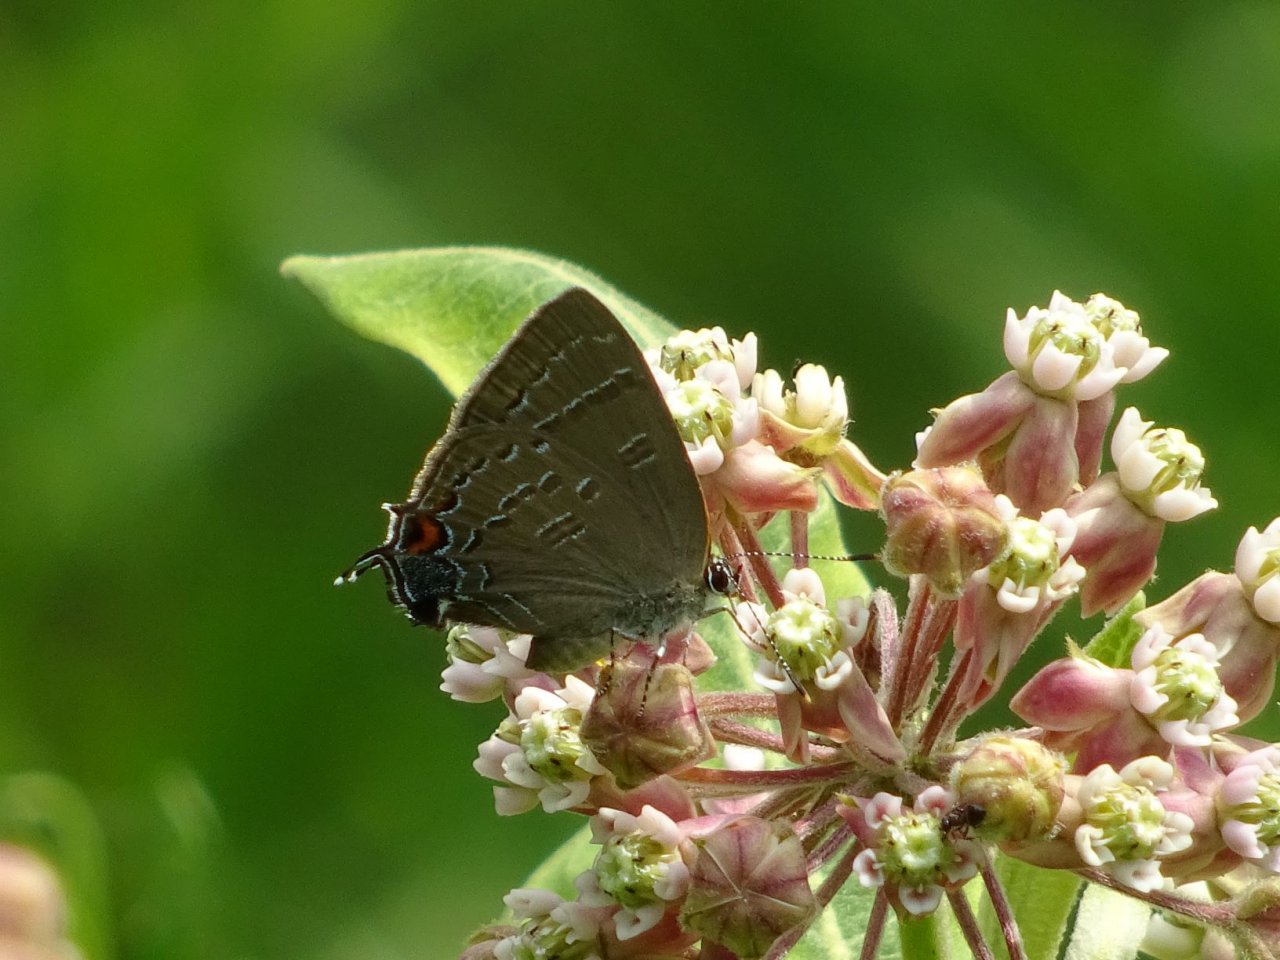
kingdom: Animalia
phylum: Arthropoda
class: Insecta
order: Lepidoptera
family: Lycaenidae
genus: Satyrium
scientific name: Satyrium calanus
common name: Banded Hairstreak
